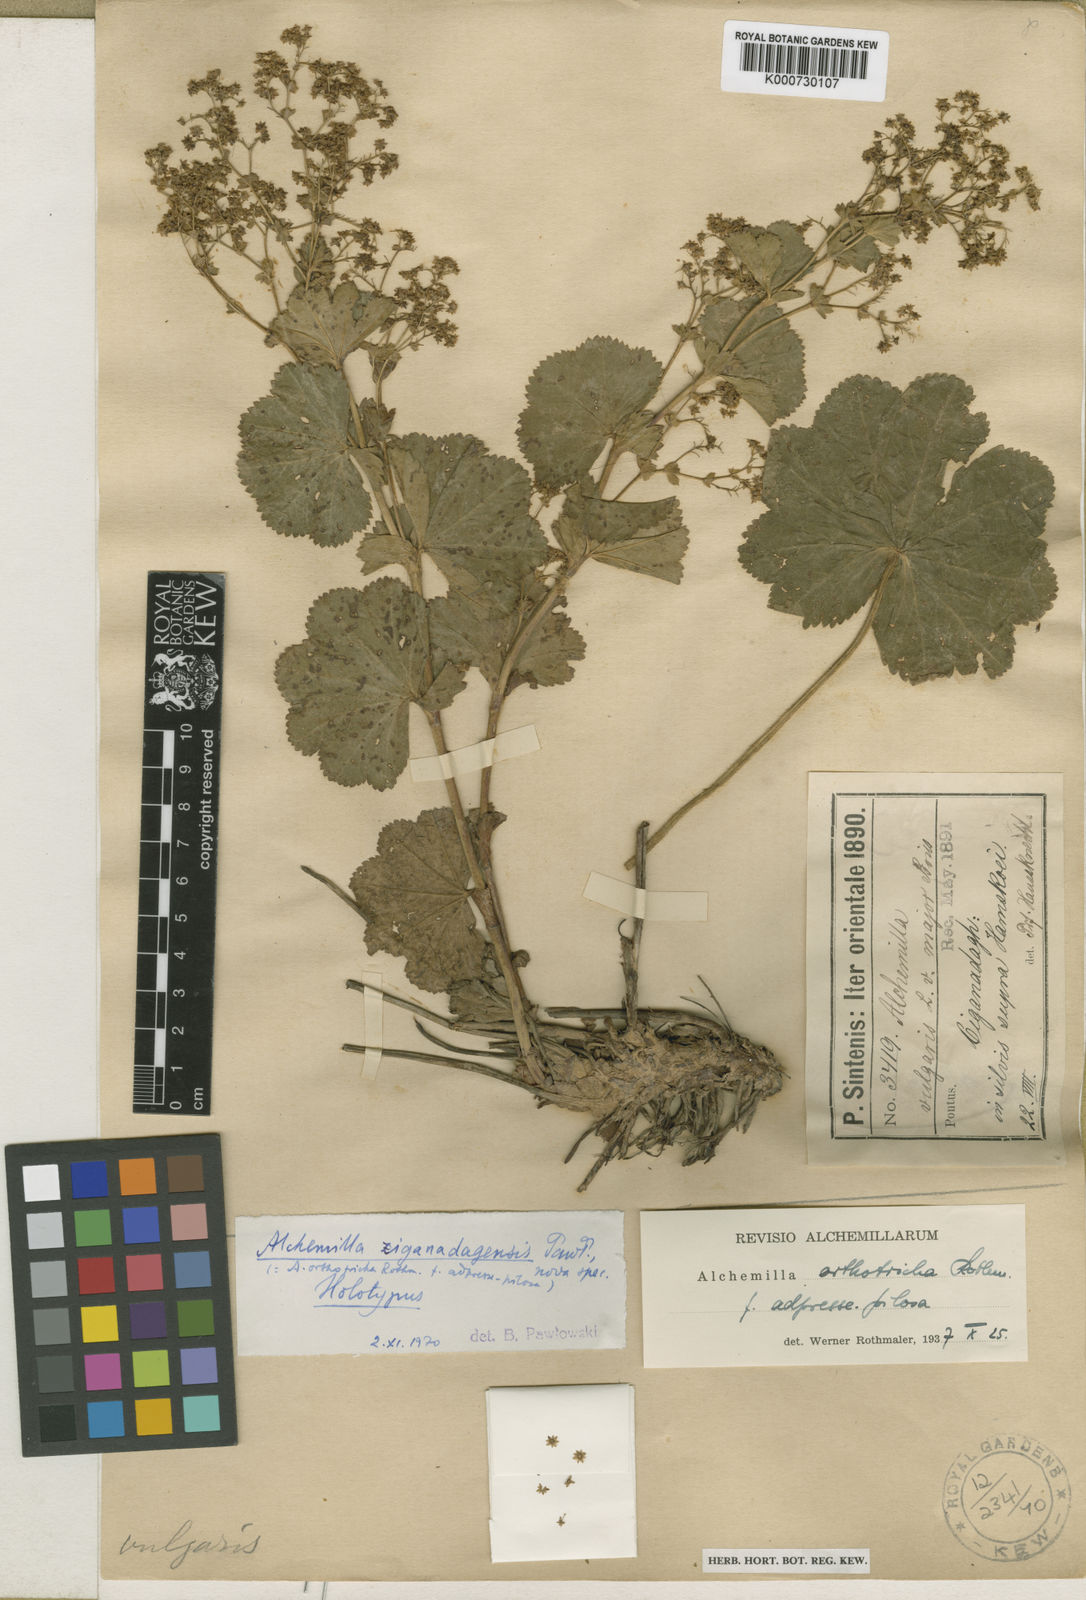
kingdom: Plantae
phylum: Tracheophyta
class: Magnoliopsida
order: Rosales
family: Rosaceae
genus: Alchemilla
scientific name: Alchemilla ziganadagensis
